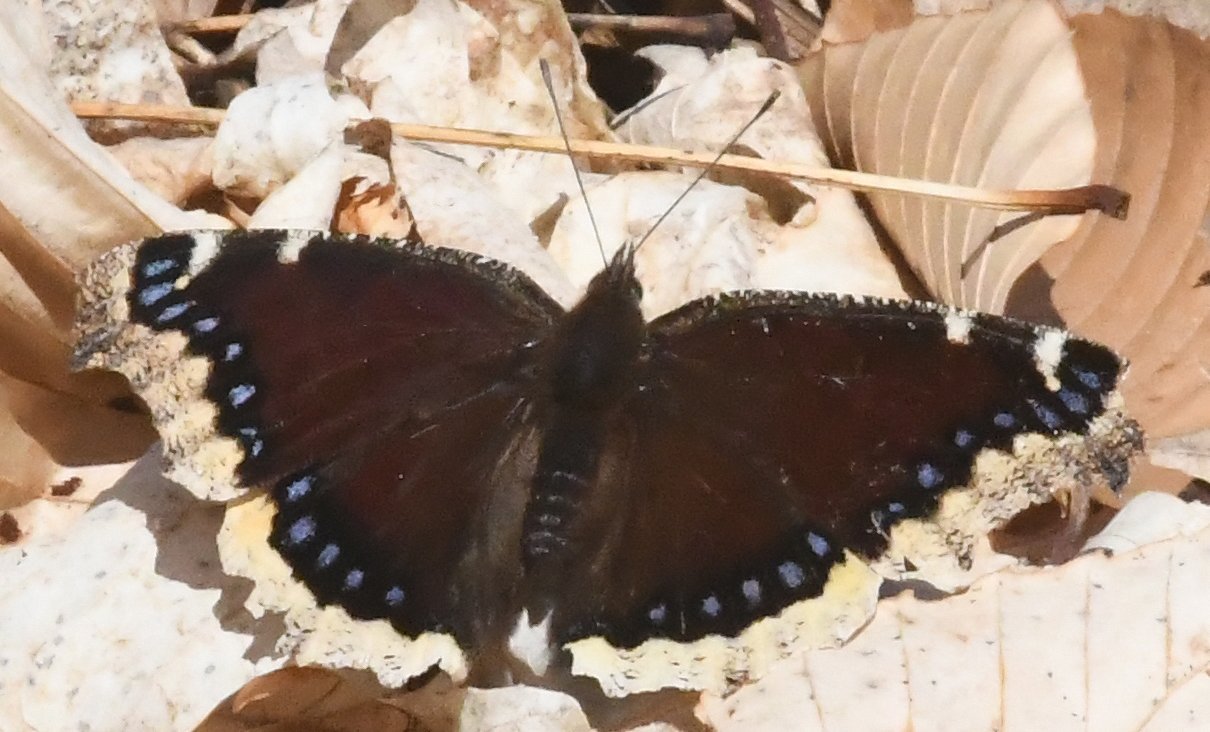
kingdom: Animalia
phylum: Arthropoda
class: Insecta
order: Lepidoptera
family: Nymphalidae
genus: Nymphalis
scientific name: Nymphalis antiopa
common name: Mourning Cloak
